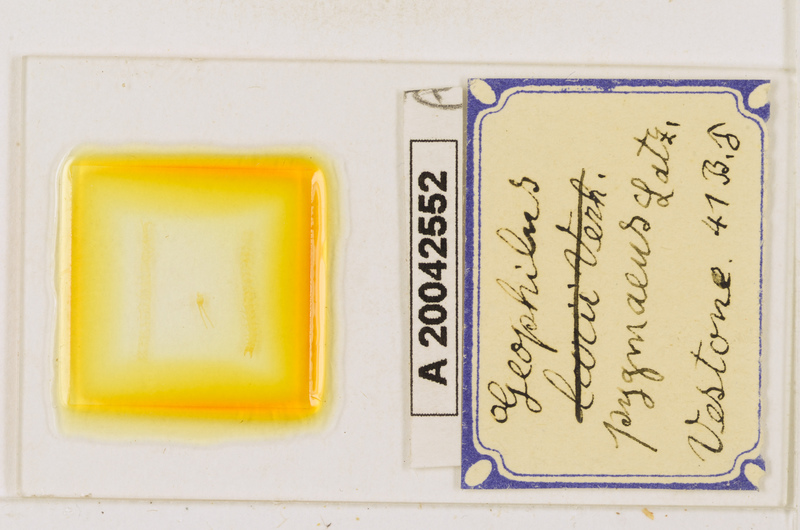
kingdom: Animalia
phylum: Arthropoda
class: Chilopoda
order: Geophilomorpha
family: Geophilidae
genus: Geophilus
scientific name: Geophilus pygmaeus
